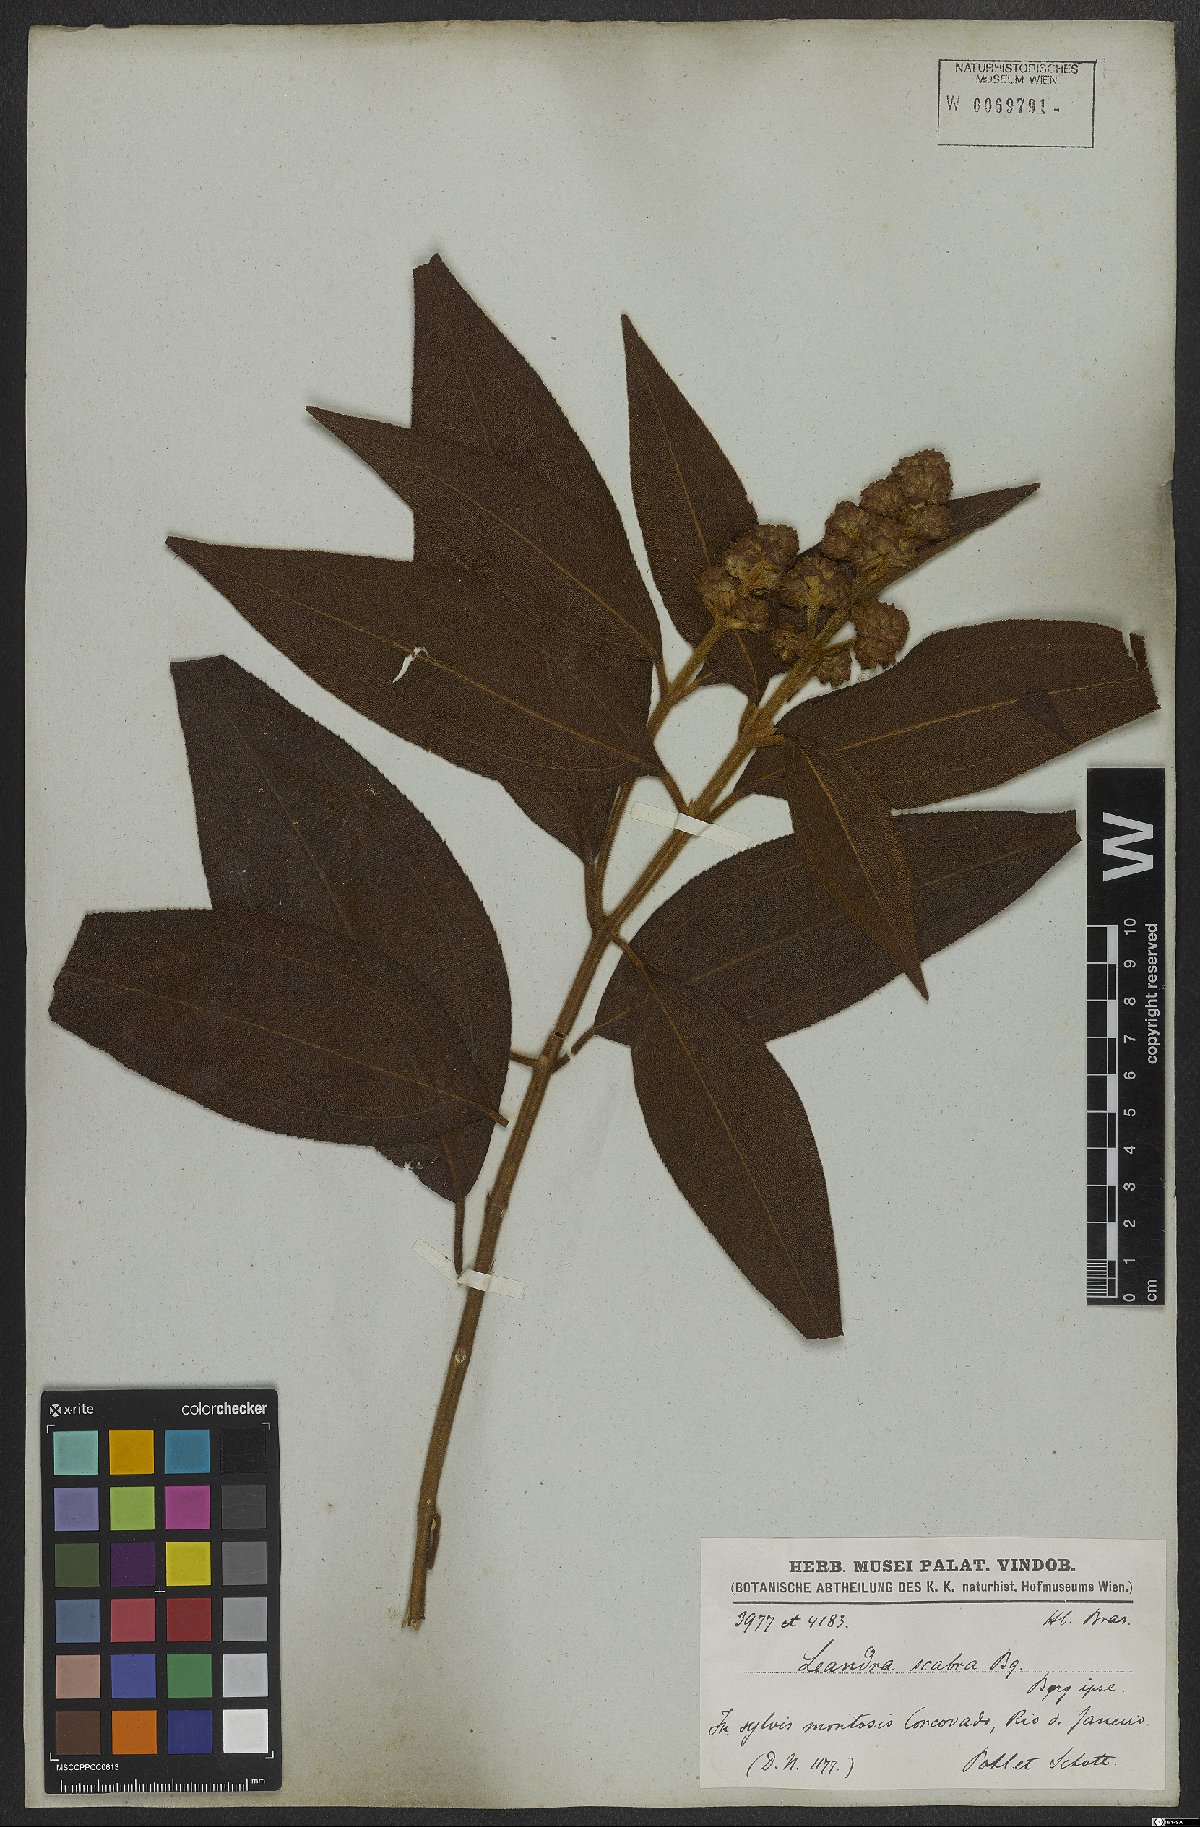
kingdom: Plantae
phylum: Tracheophyta
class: Magnoliopsida
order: Myrtales
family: Melastomataceae
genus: Miconia
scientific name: Miconia melastomoides
